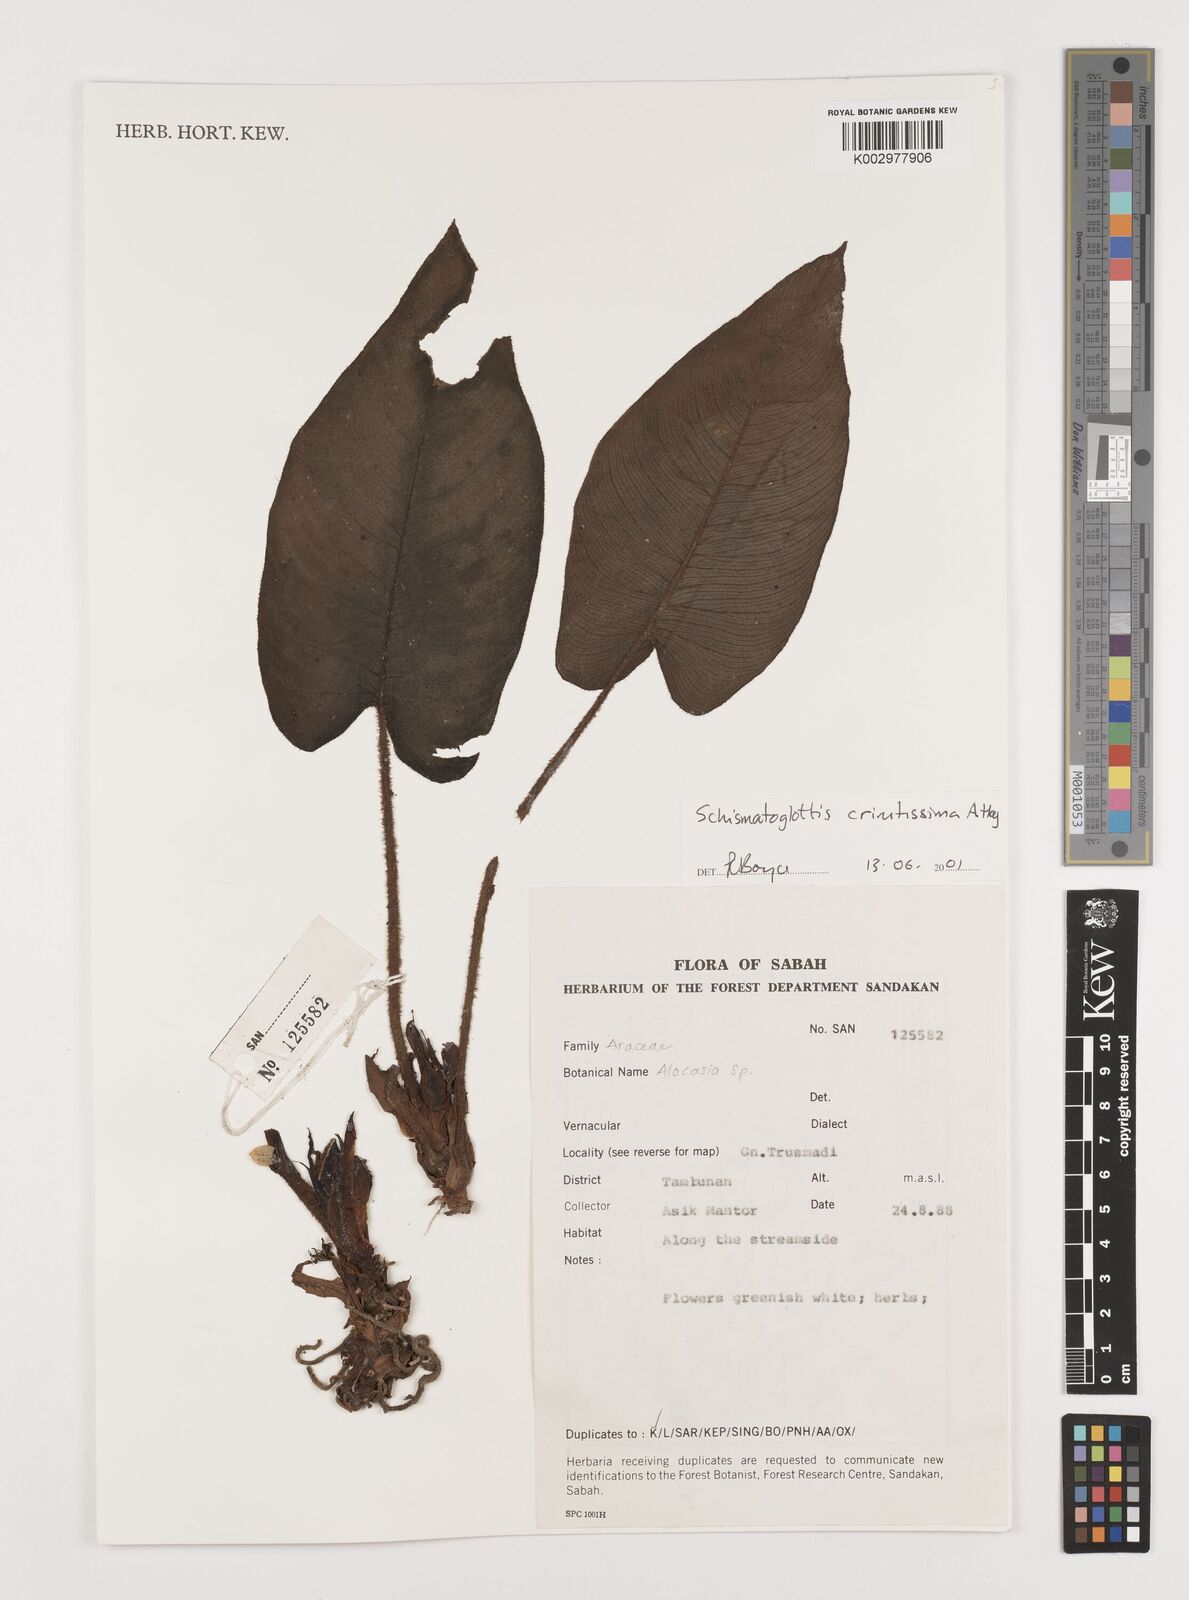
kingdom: Plantae
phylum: Tracheophyta
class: Liliopsida
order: Alismatales
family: Araceae
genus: Schismatoglottis
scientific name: Schismatoglottis crinitissima
